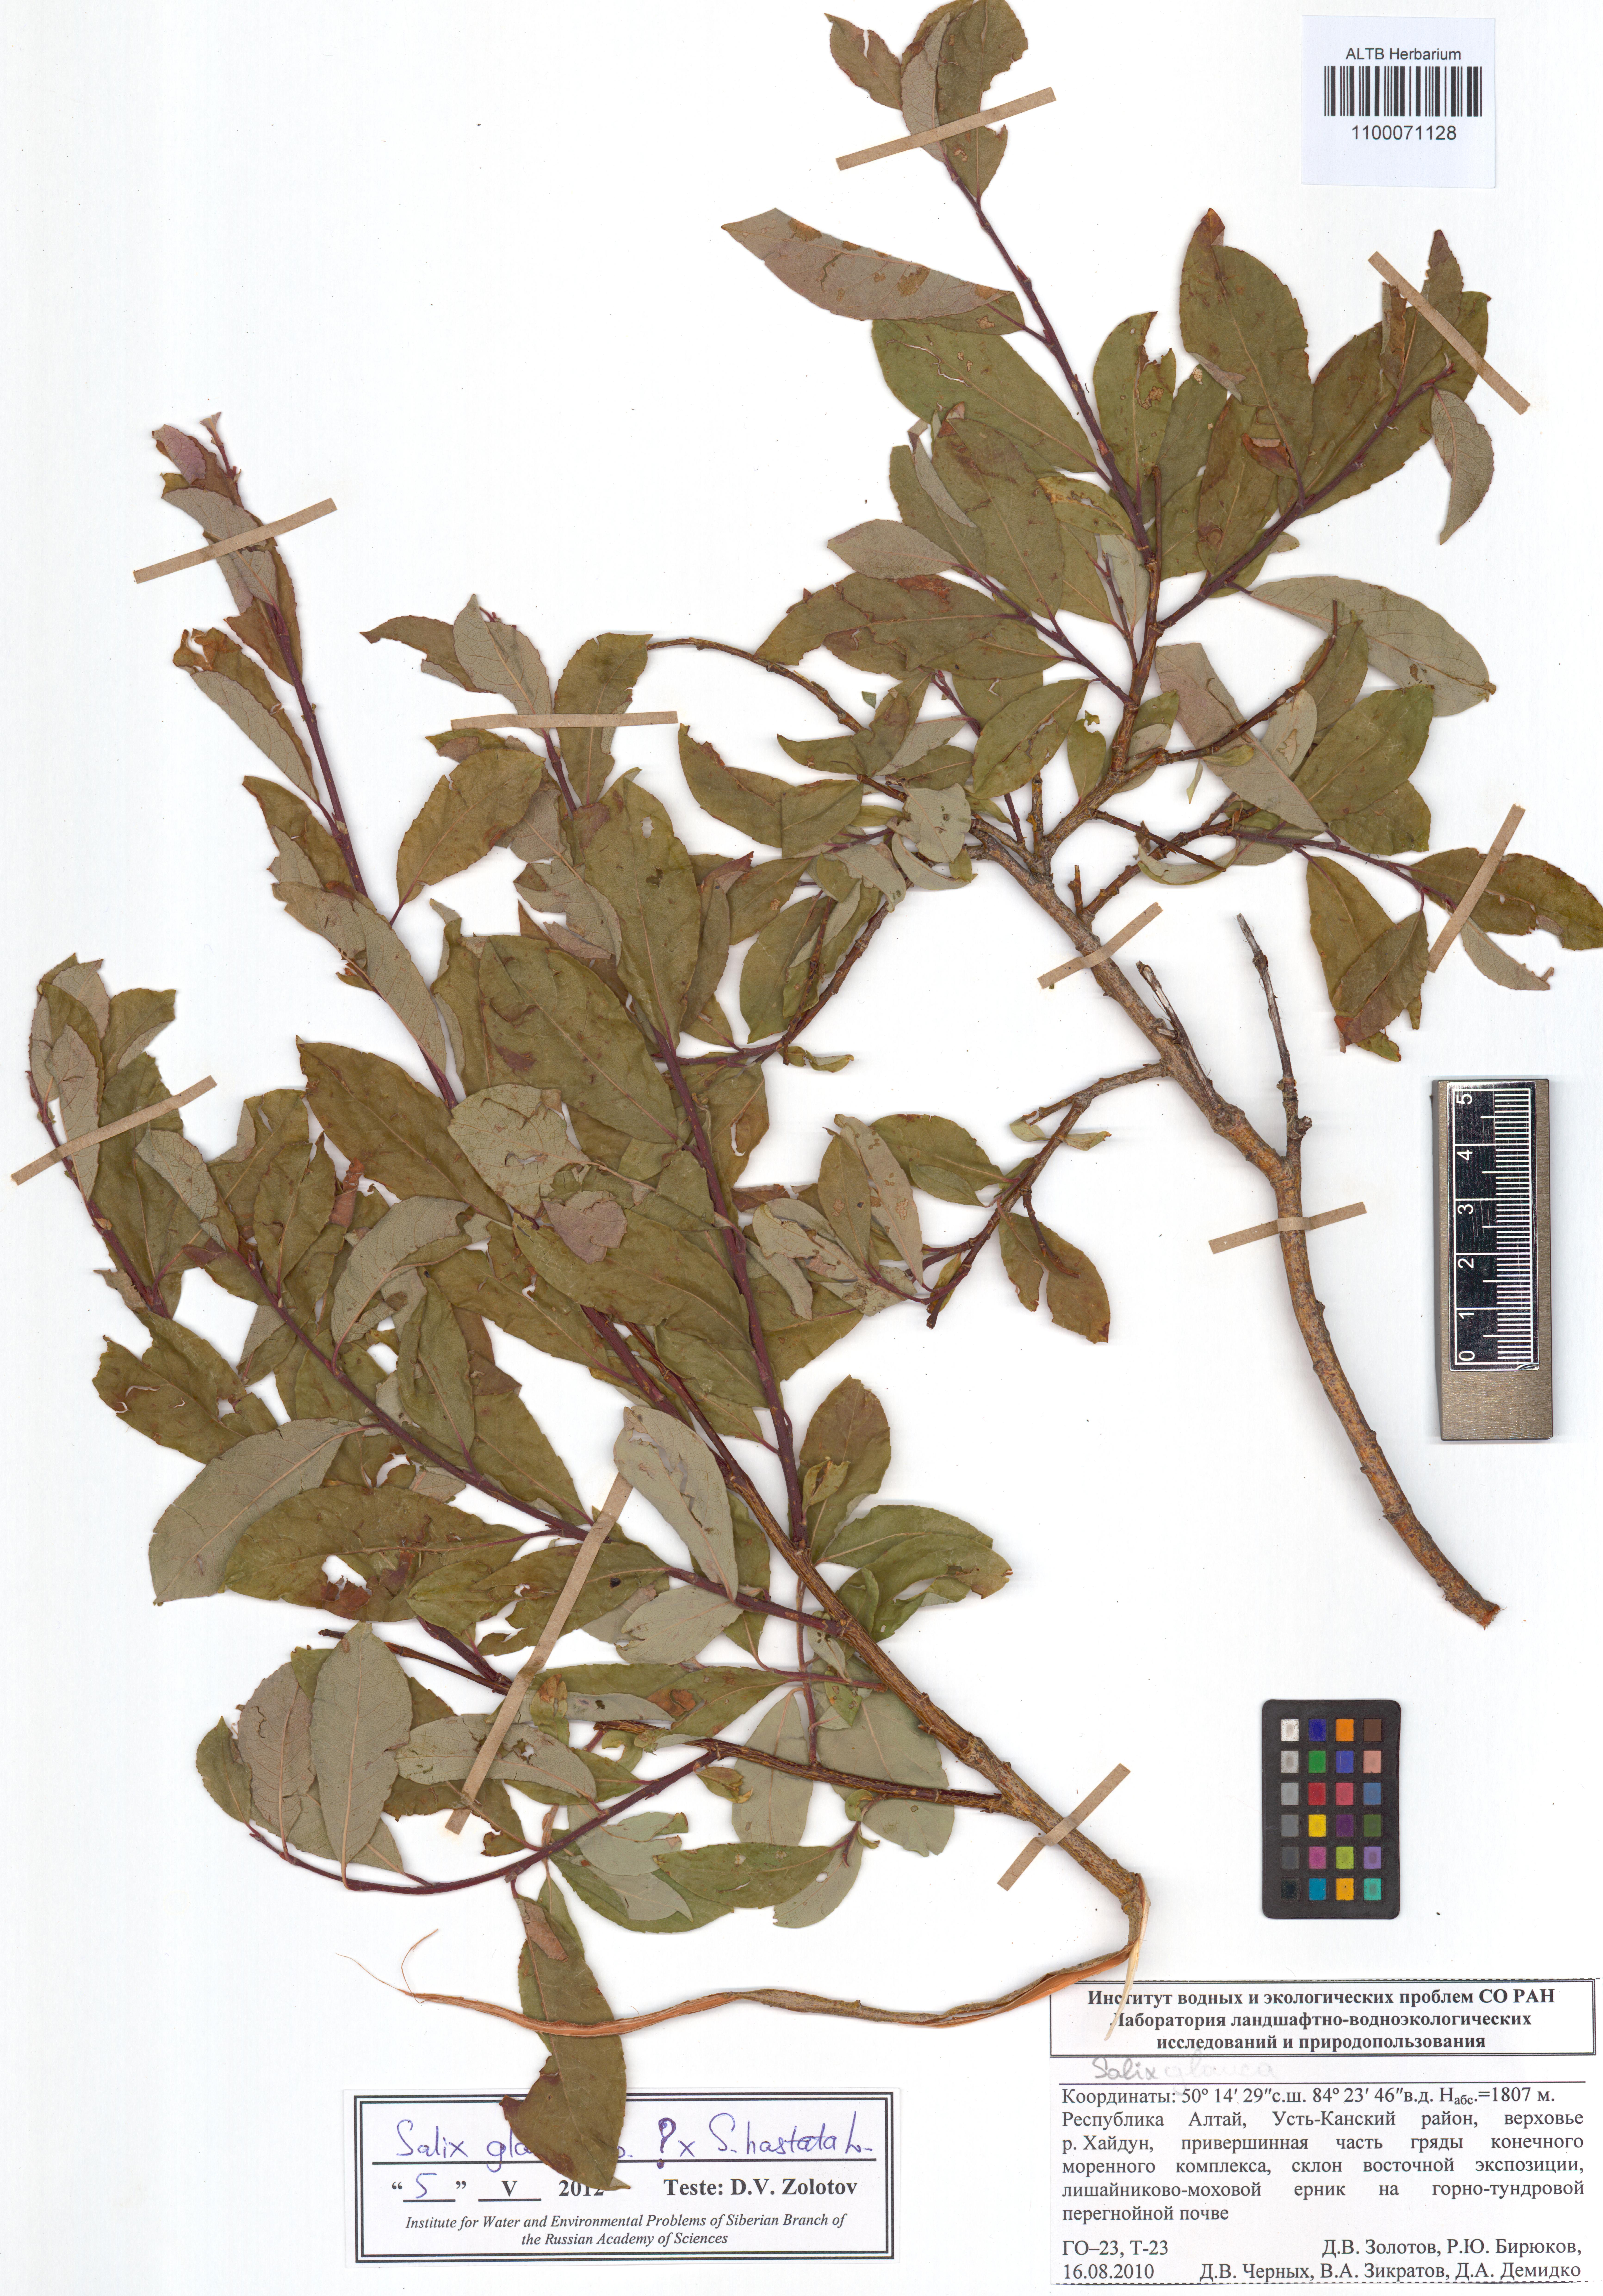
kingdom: Plantae
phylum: Tracheophyta
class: Magnoliopsida
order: Malpighiales
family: Salicaceae
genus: Salix
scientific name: Salix glauca
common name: Glaucous willow
